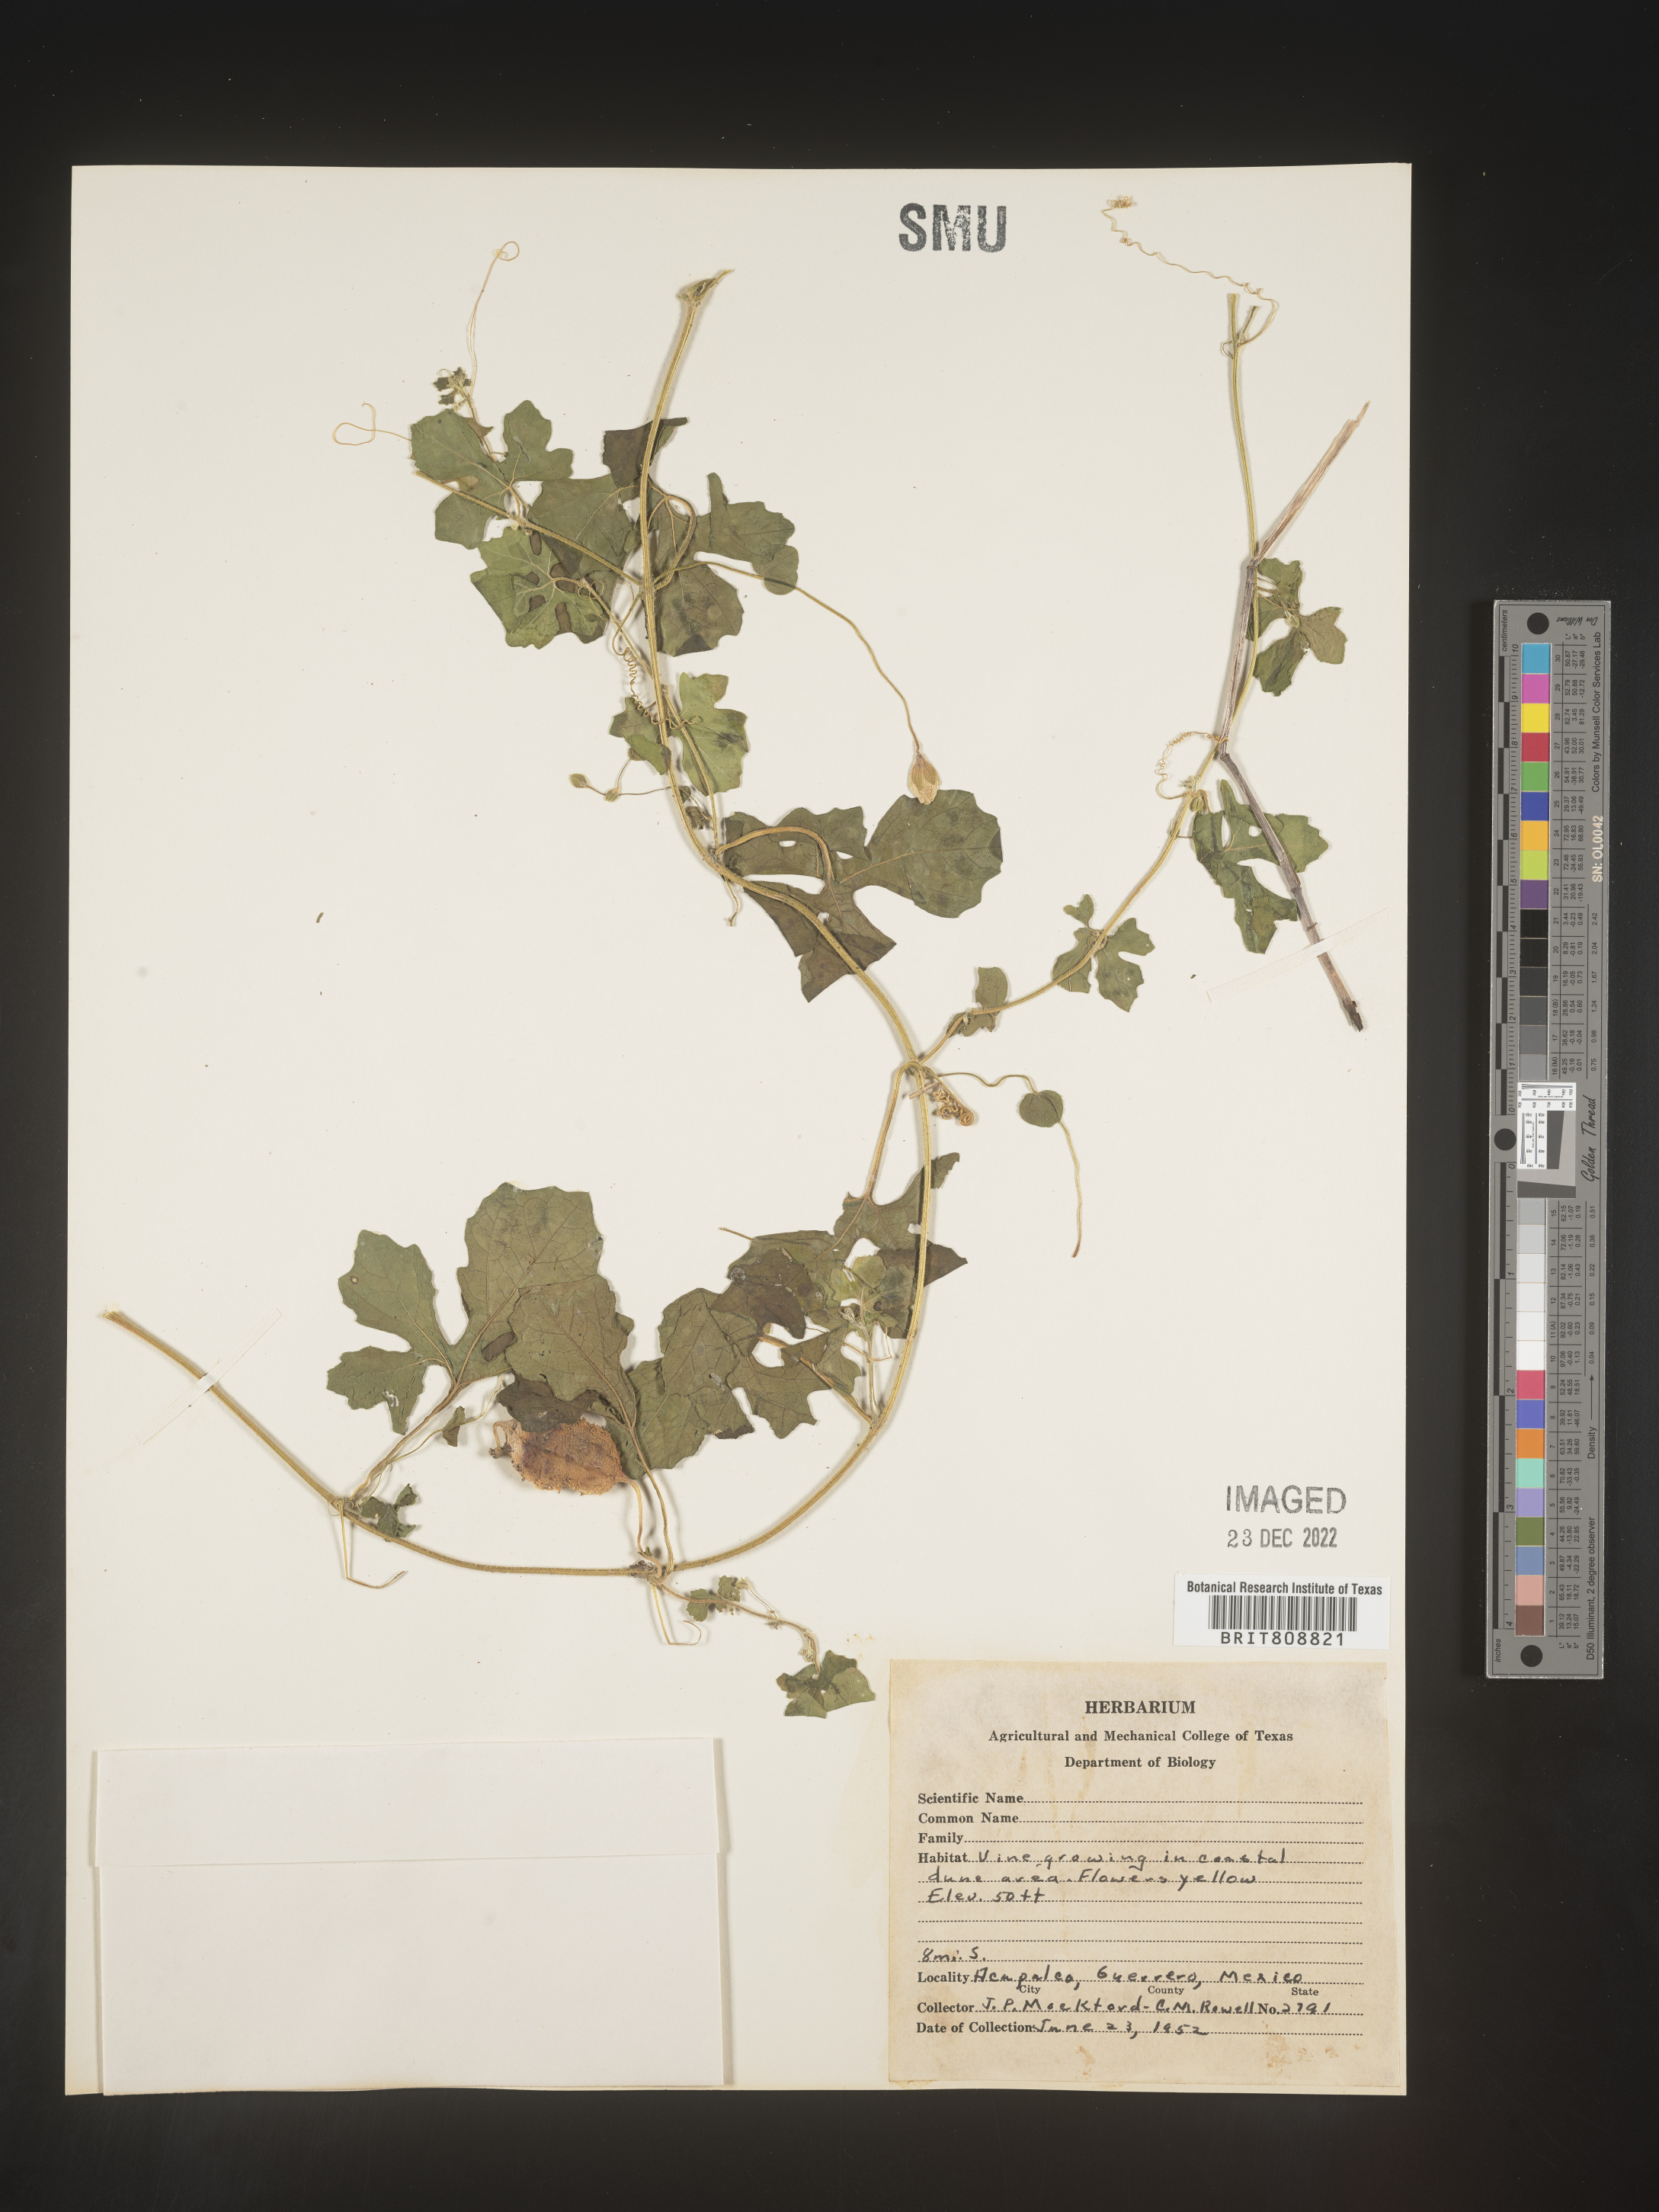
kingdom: Plantae
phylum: Tracheophyta
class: Magnoliopsida
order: Cucurbitales
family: Cucurbitaceae
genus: Momordica
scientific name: Momordica
